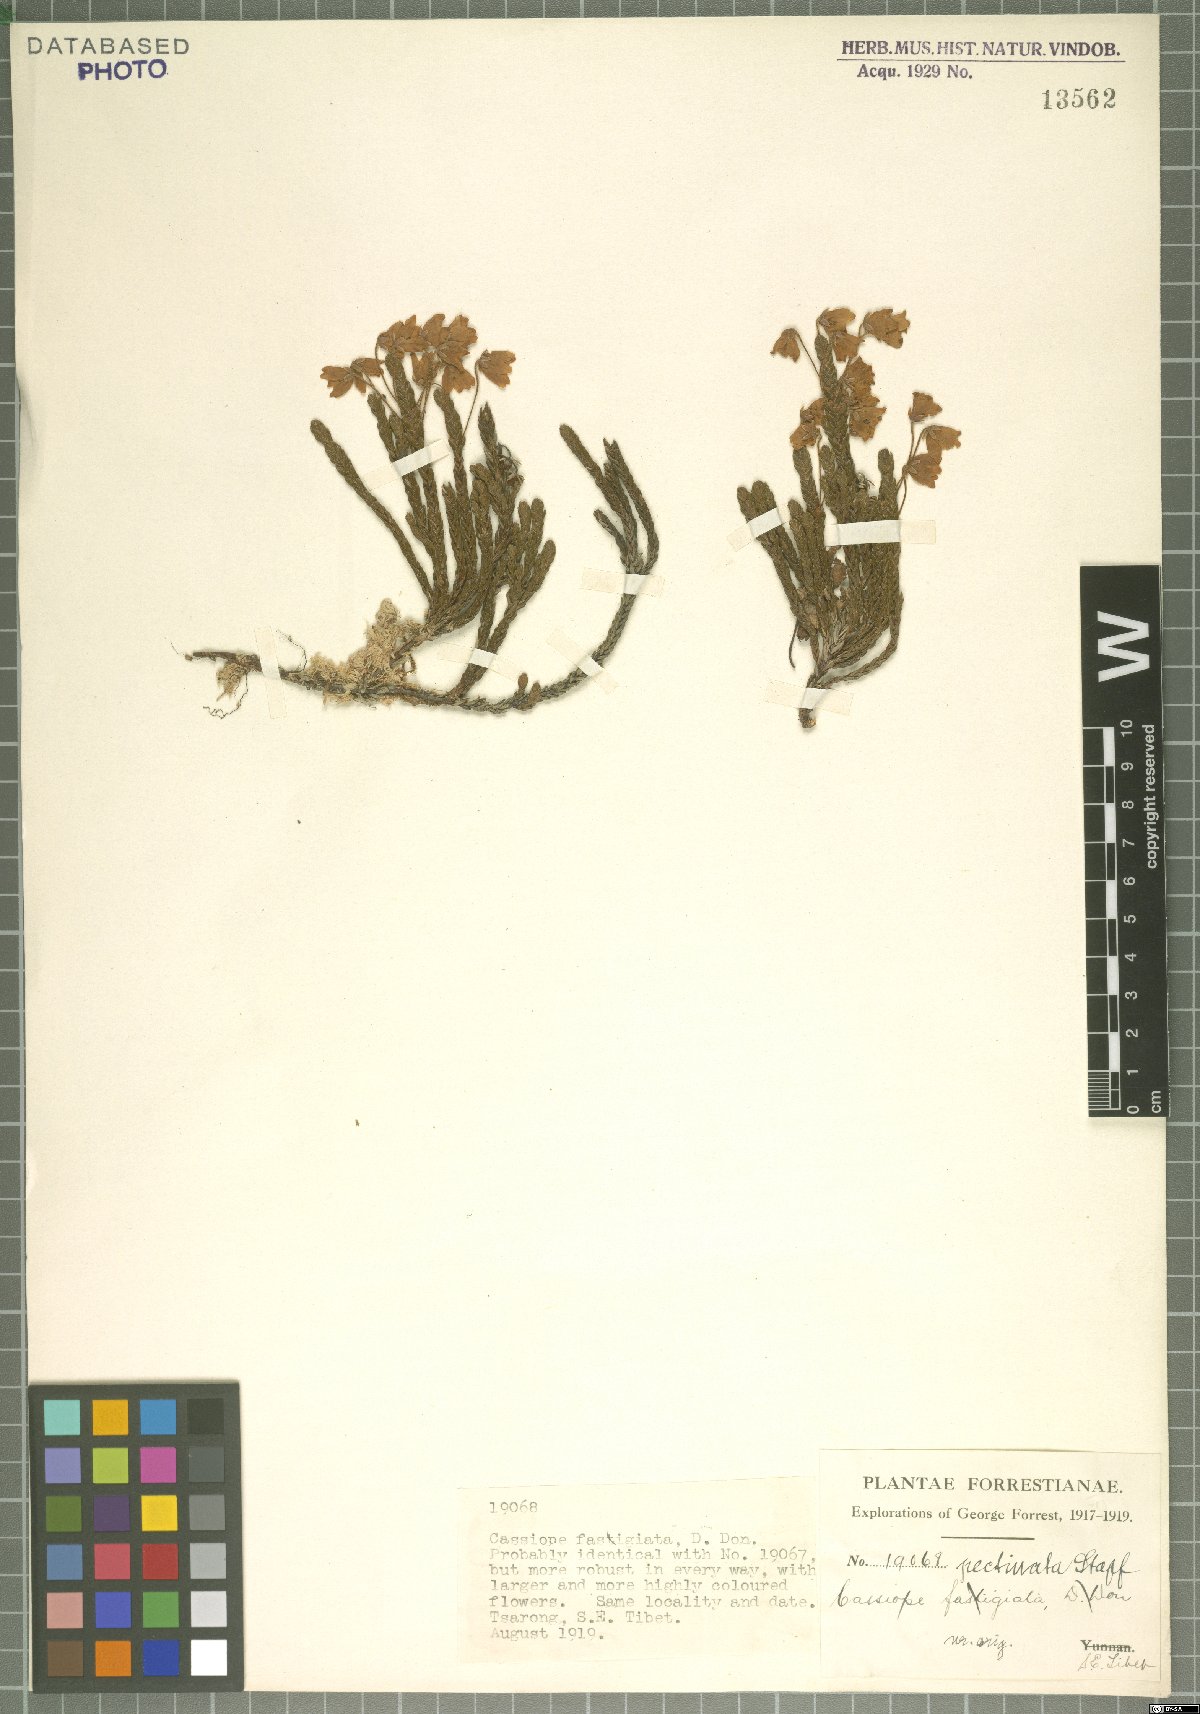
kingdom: Plantae
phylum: Tracheophyta
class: Magnoliopsida
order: Ericales
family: Ericaceae
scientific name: Ericaceae
